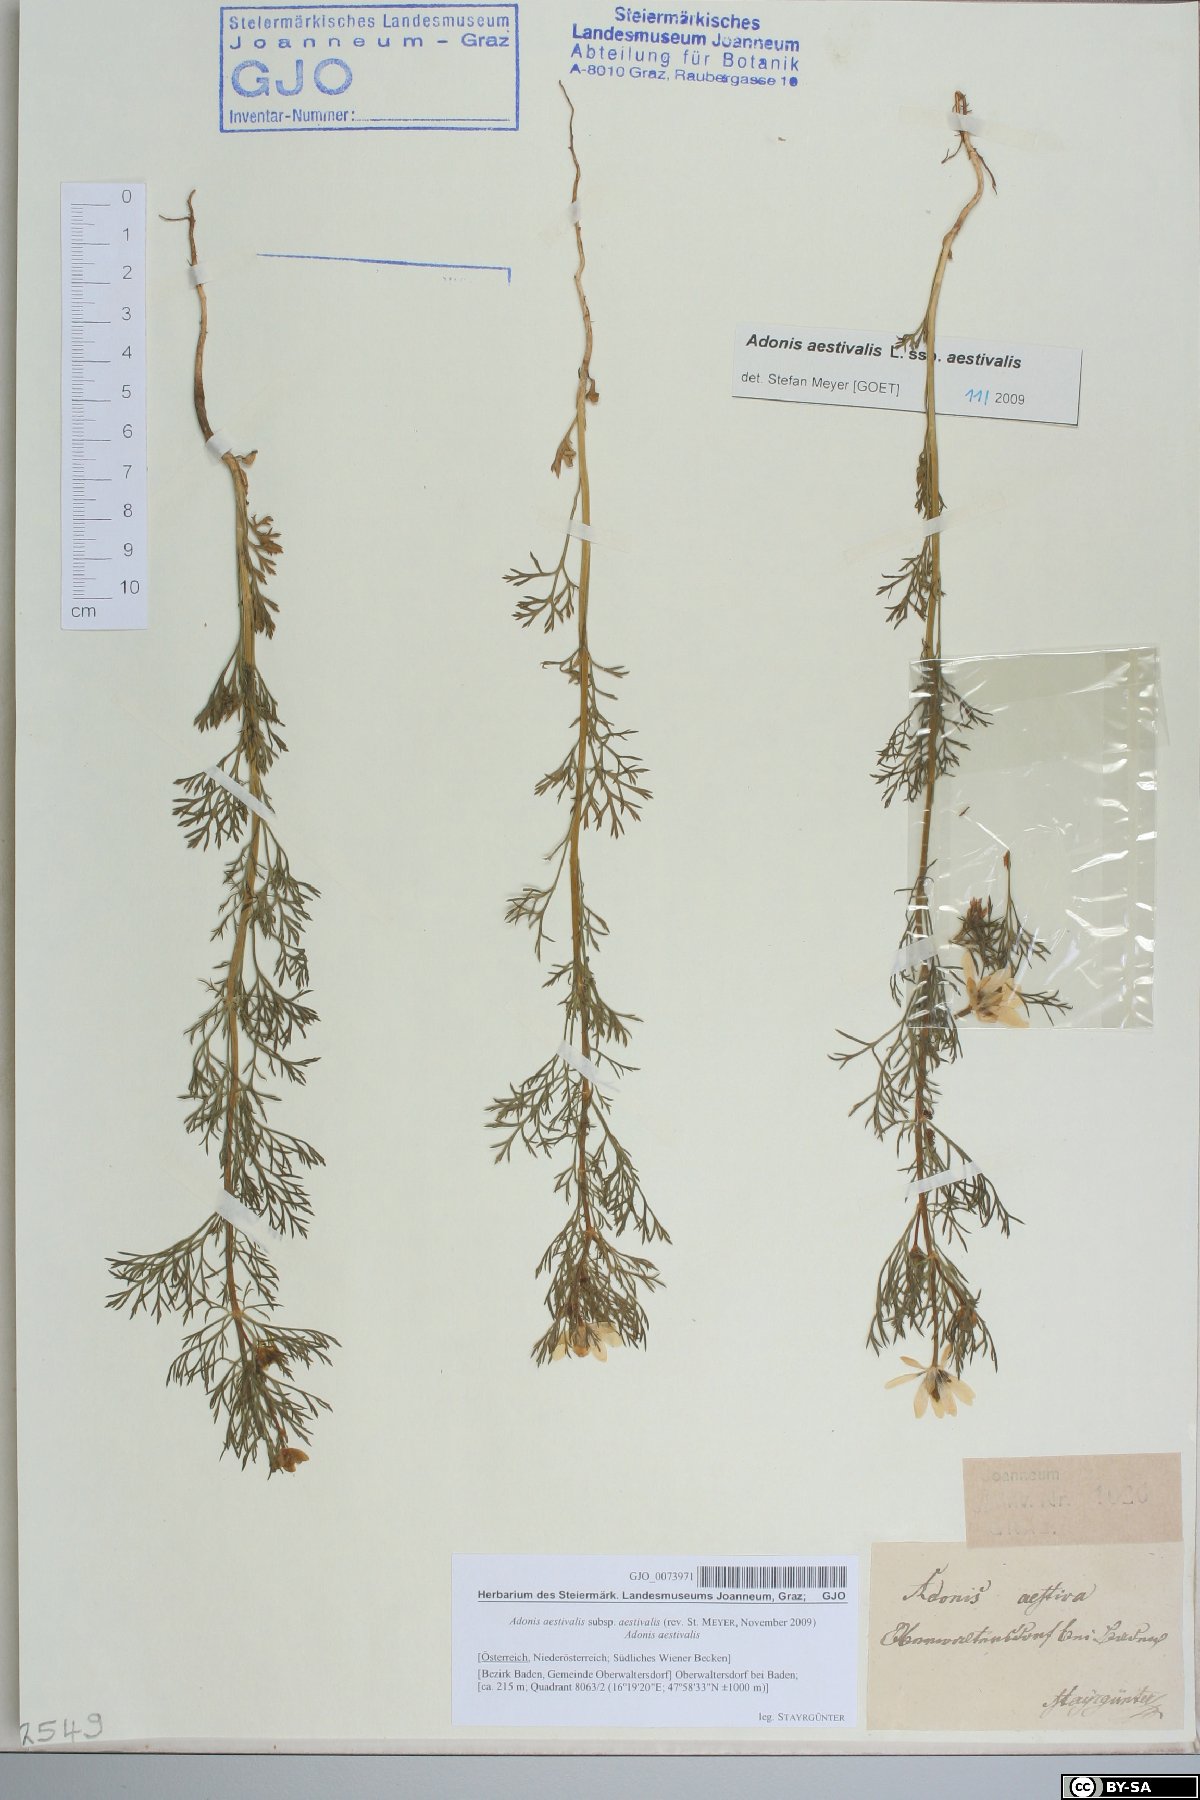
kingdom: Plantae
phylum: Tracheophyta
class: Magnoliopsida
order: Ranunculales
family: Ranunculaceae
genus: Adonis
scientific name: Adonis aestivalis
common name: Summer pheasant's-eye
